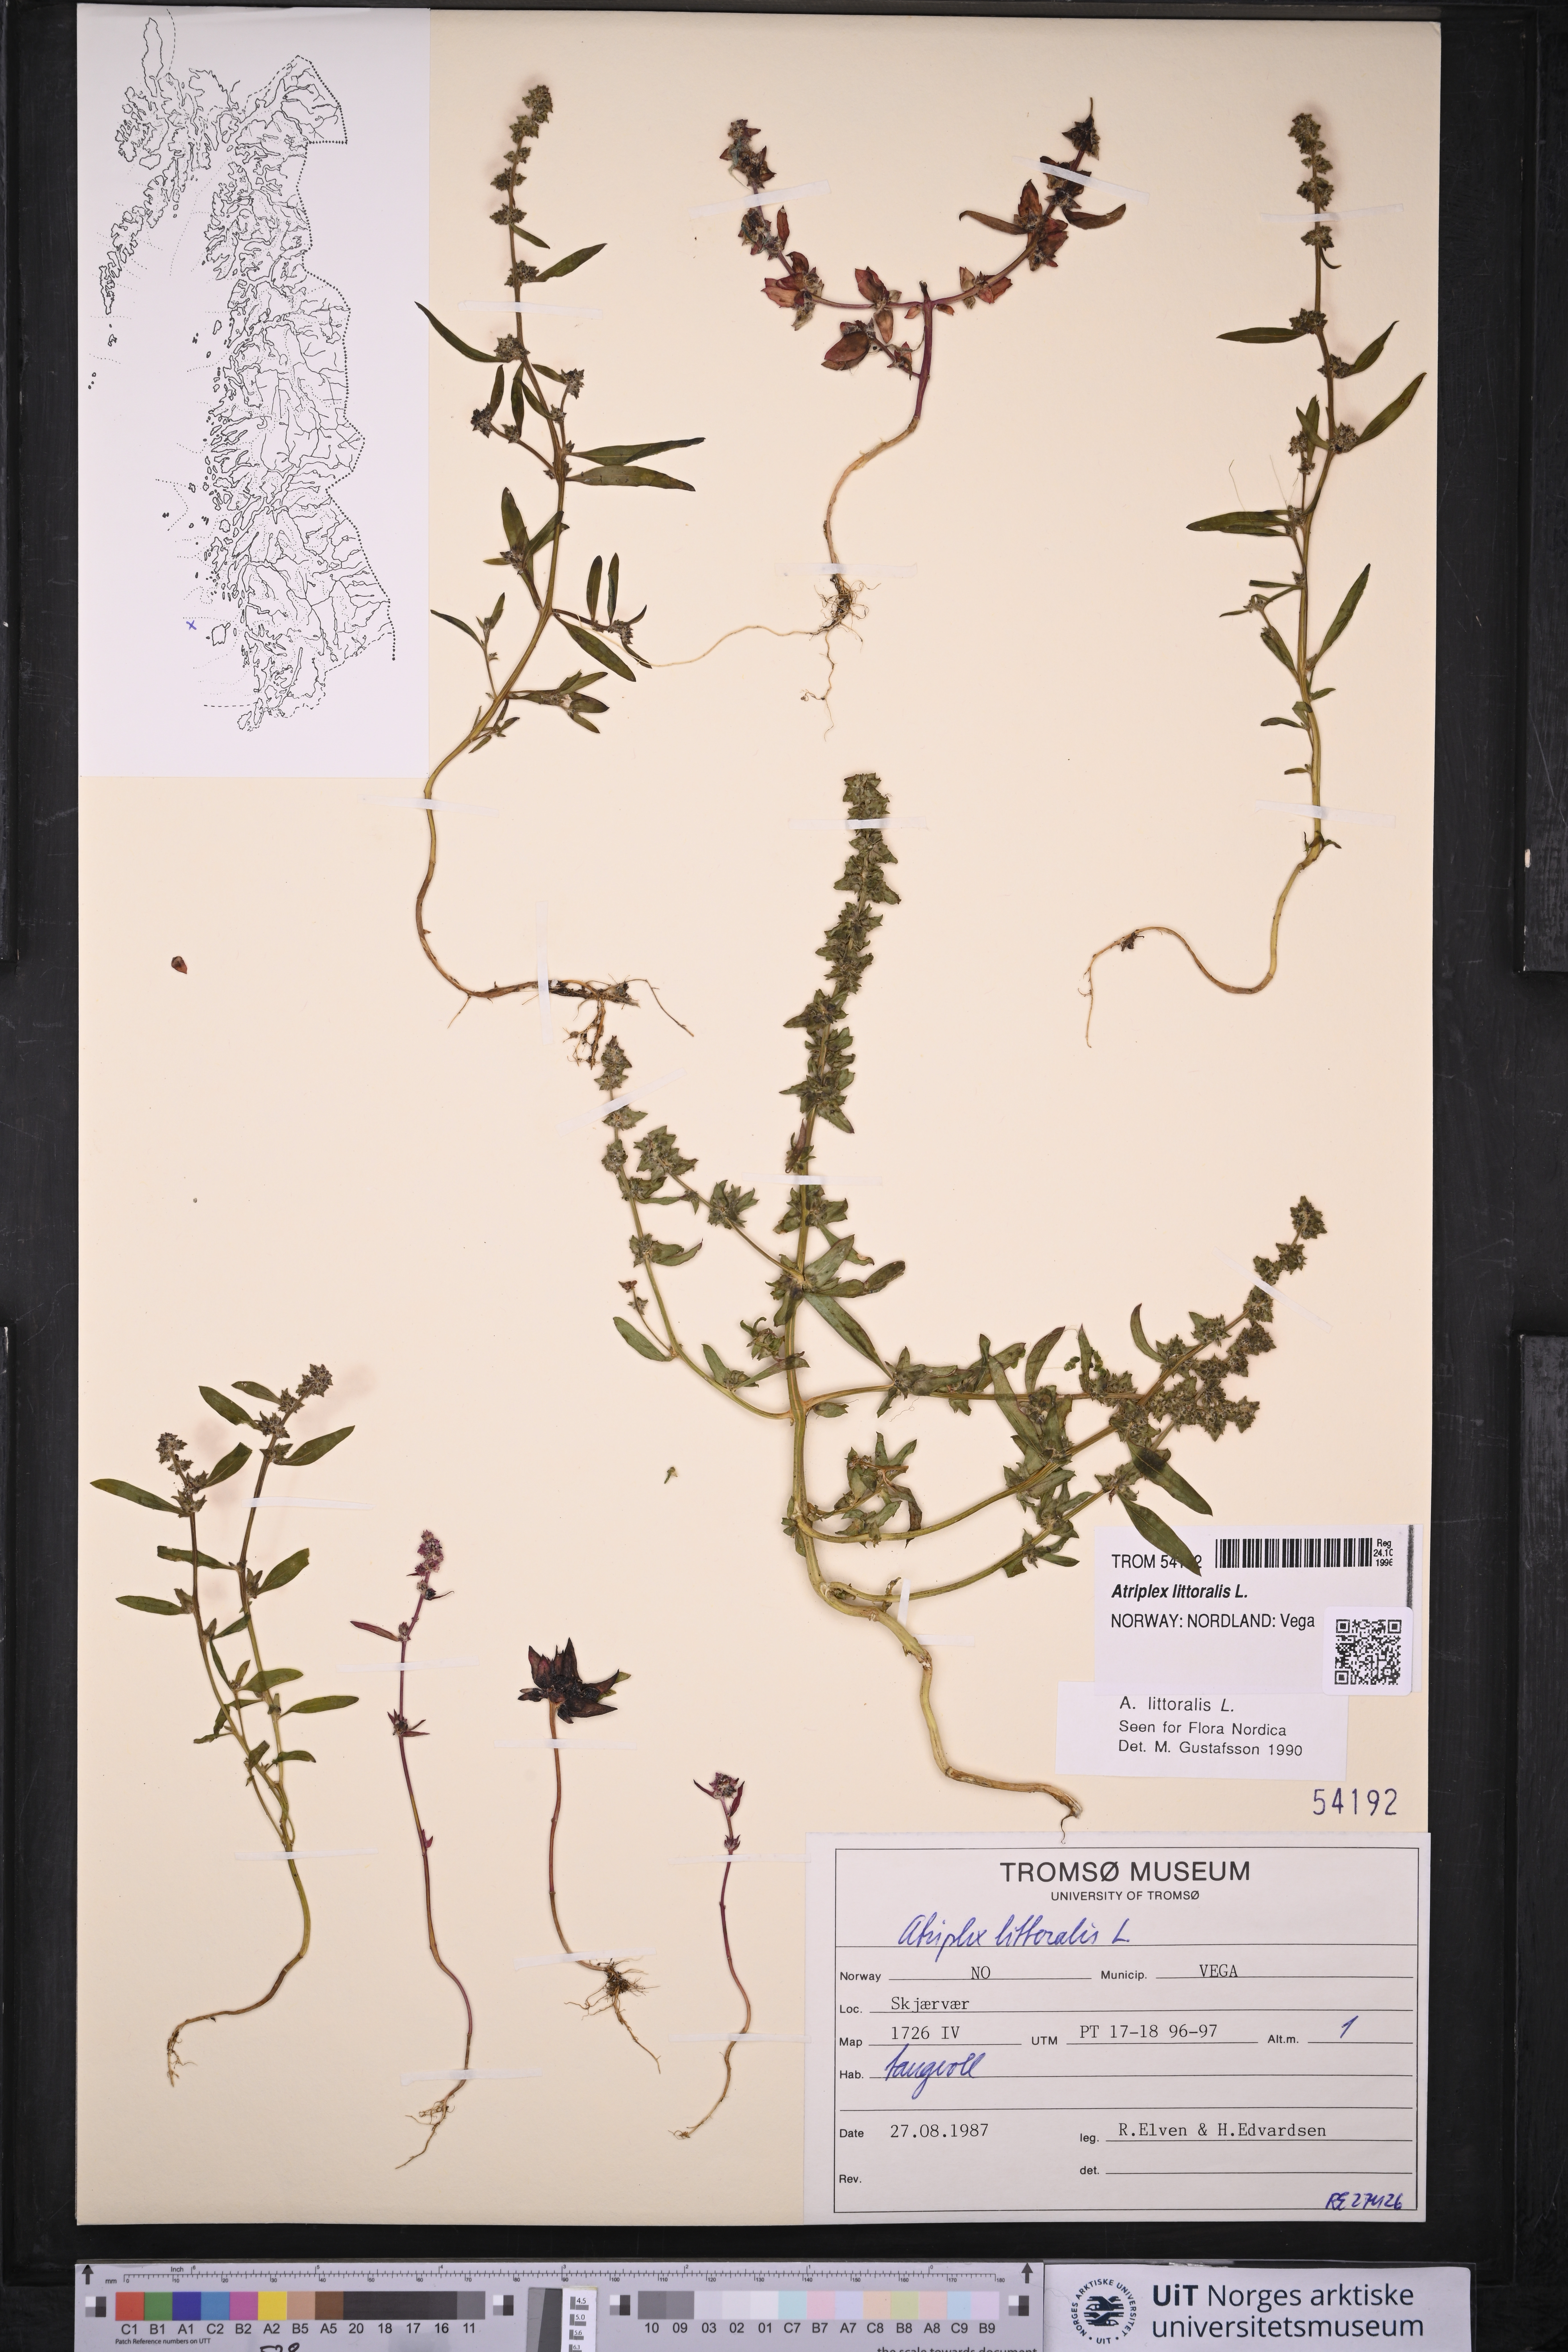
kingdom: Plantae
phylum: Tracheophyta
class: Magnoliopsida
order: Caryophyllales
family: Amaranthaceae
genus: Atriplex
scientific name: Atriplex littoralis
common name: Grass-leaved orache
